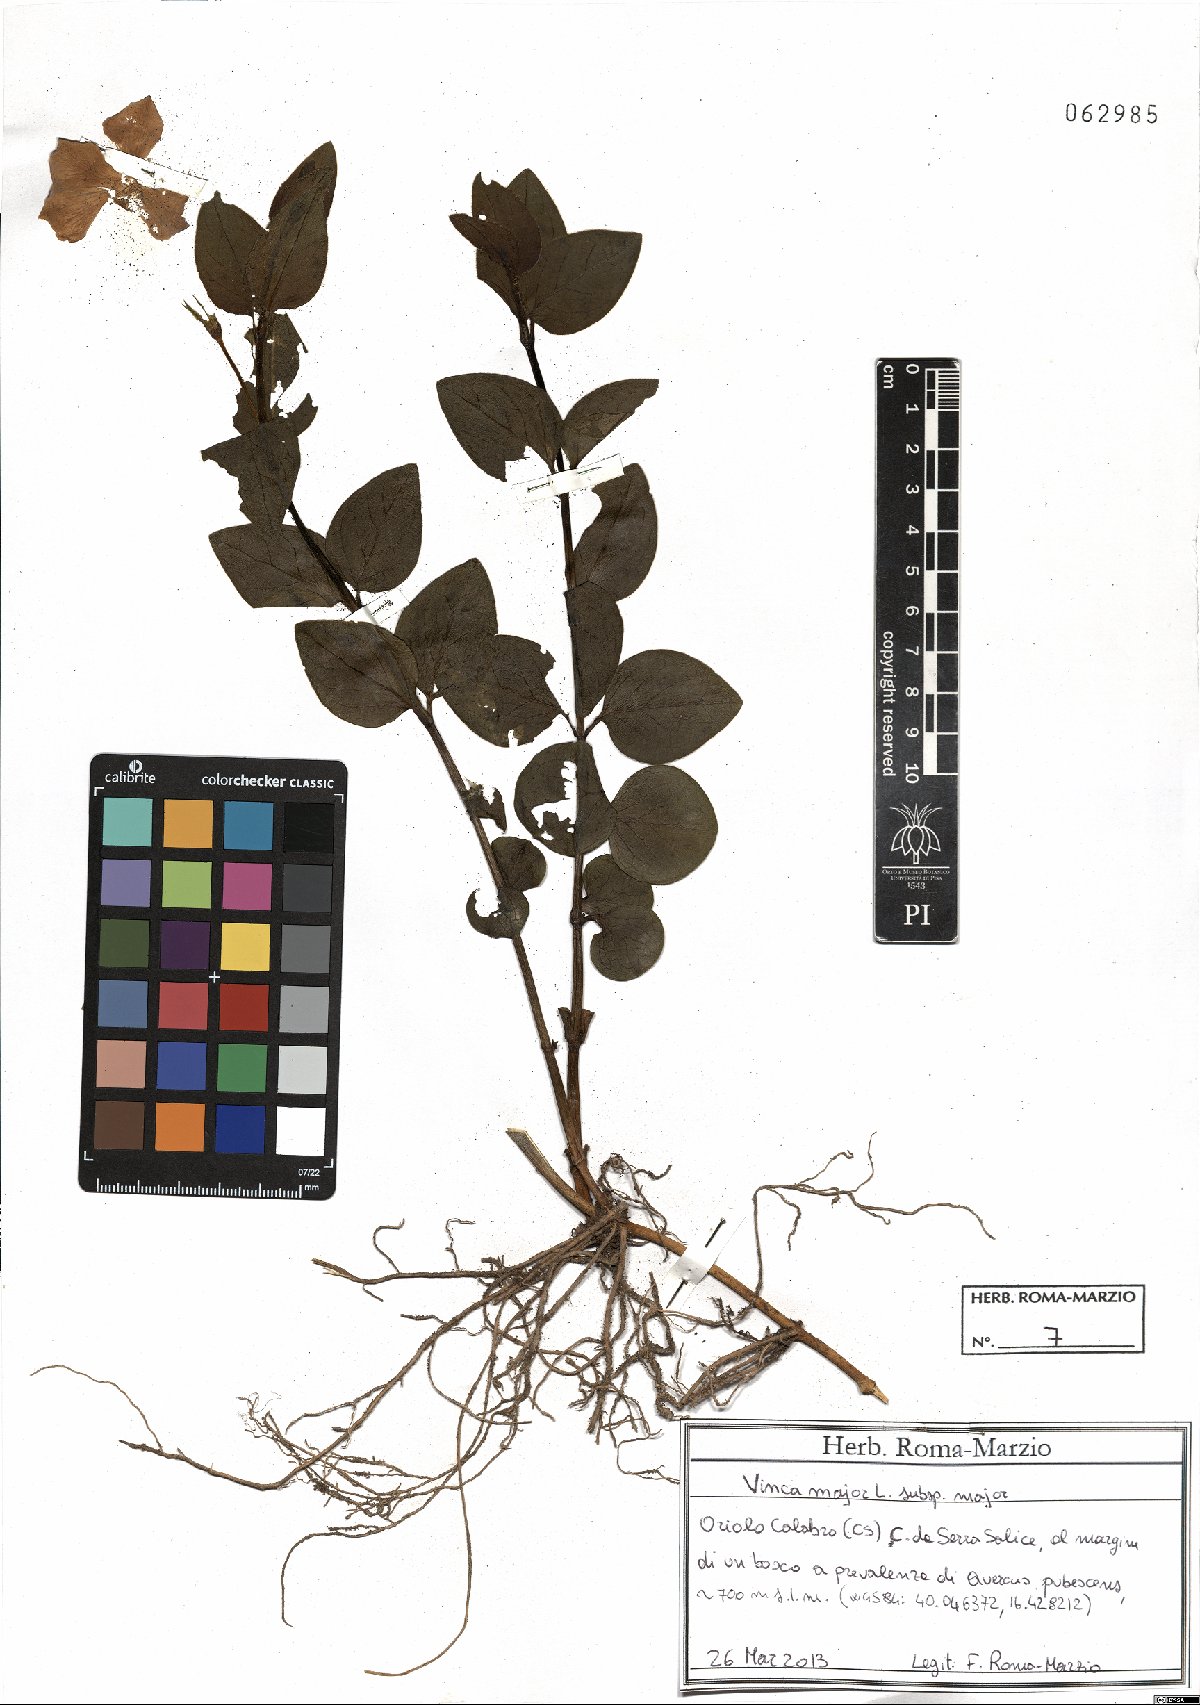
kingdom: Plantae
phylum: Tracheophyta
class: Magnoliopsida
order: Gentianales
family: Apocynaceae
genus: Vinca
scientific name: Vinca major
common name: Greater periwinkle
